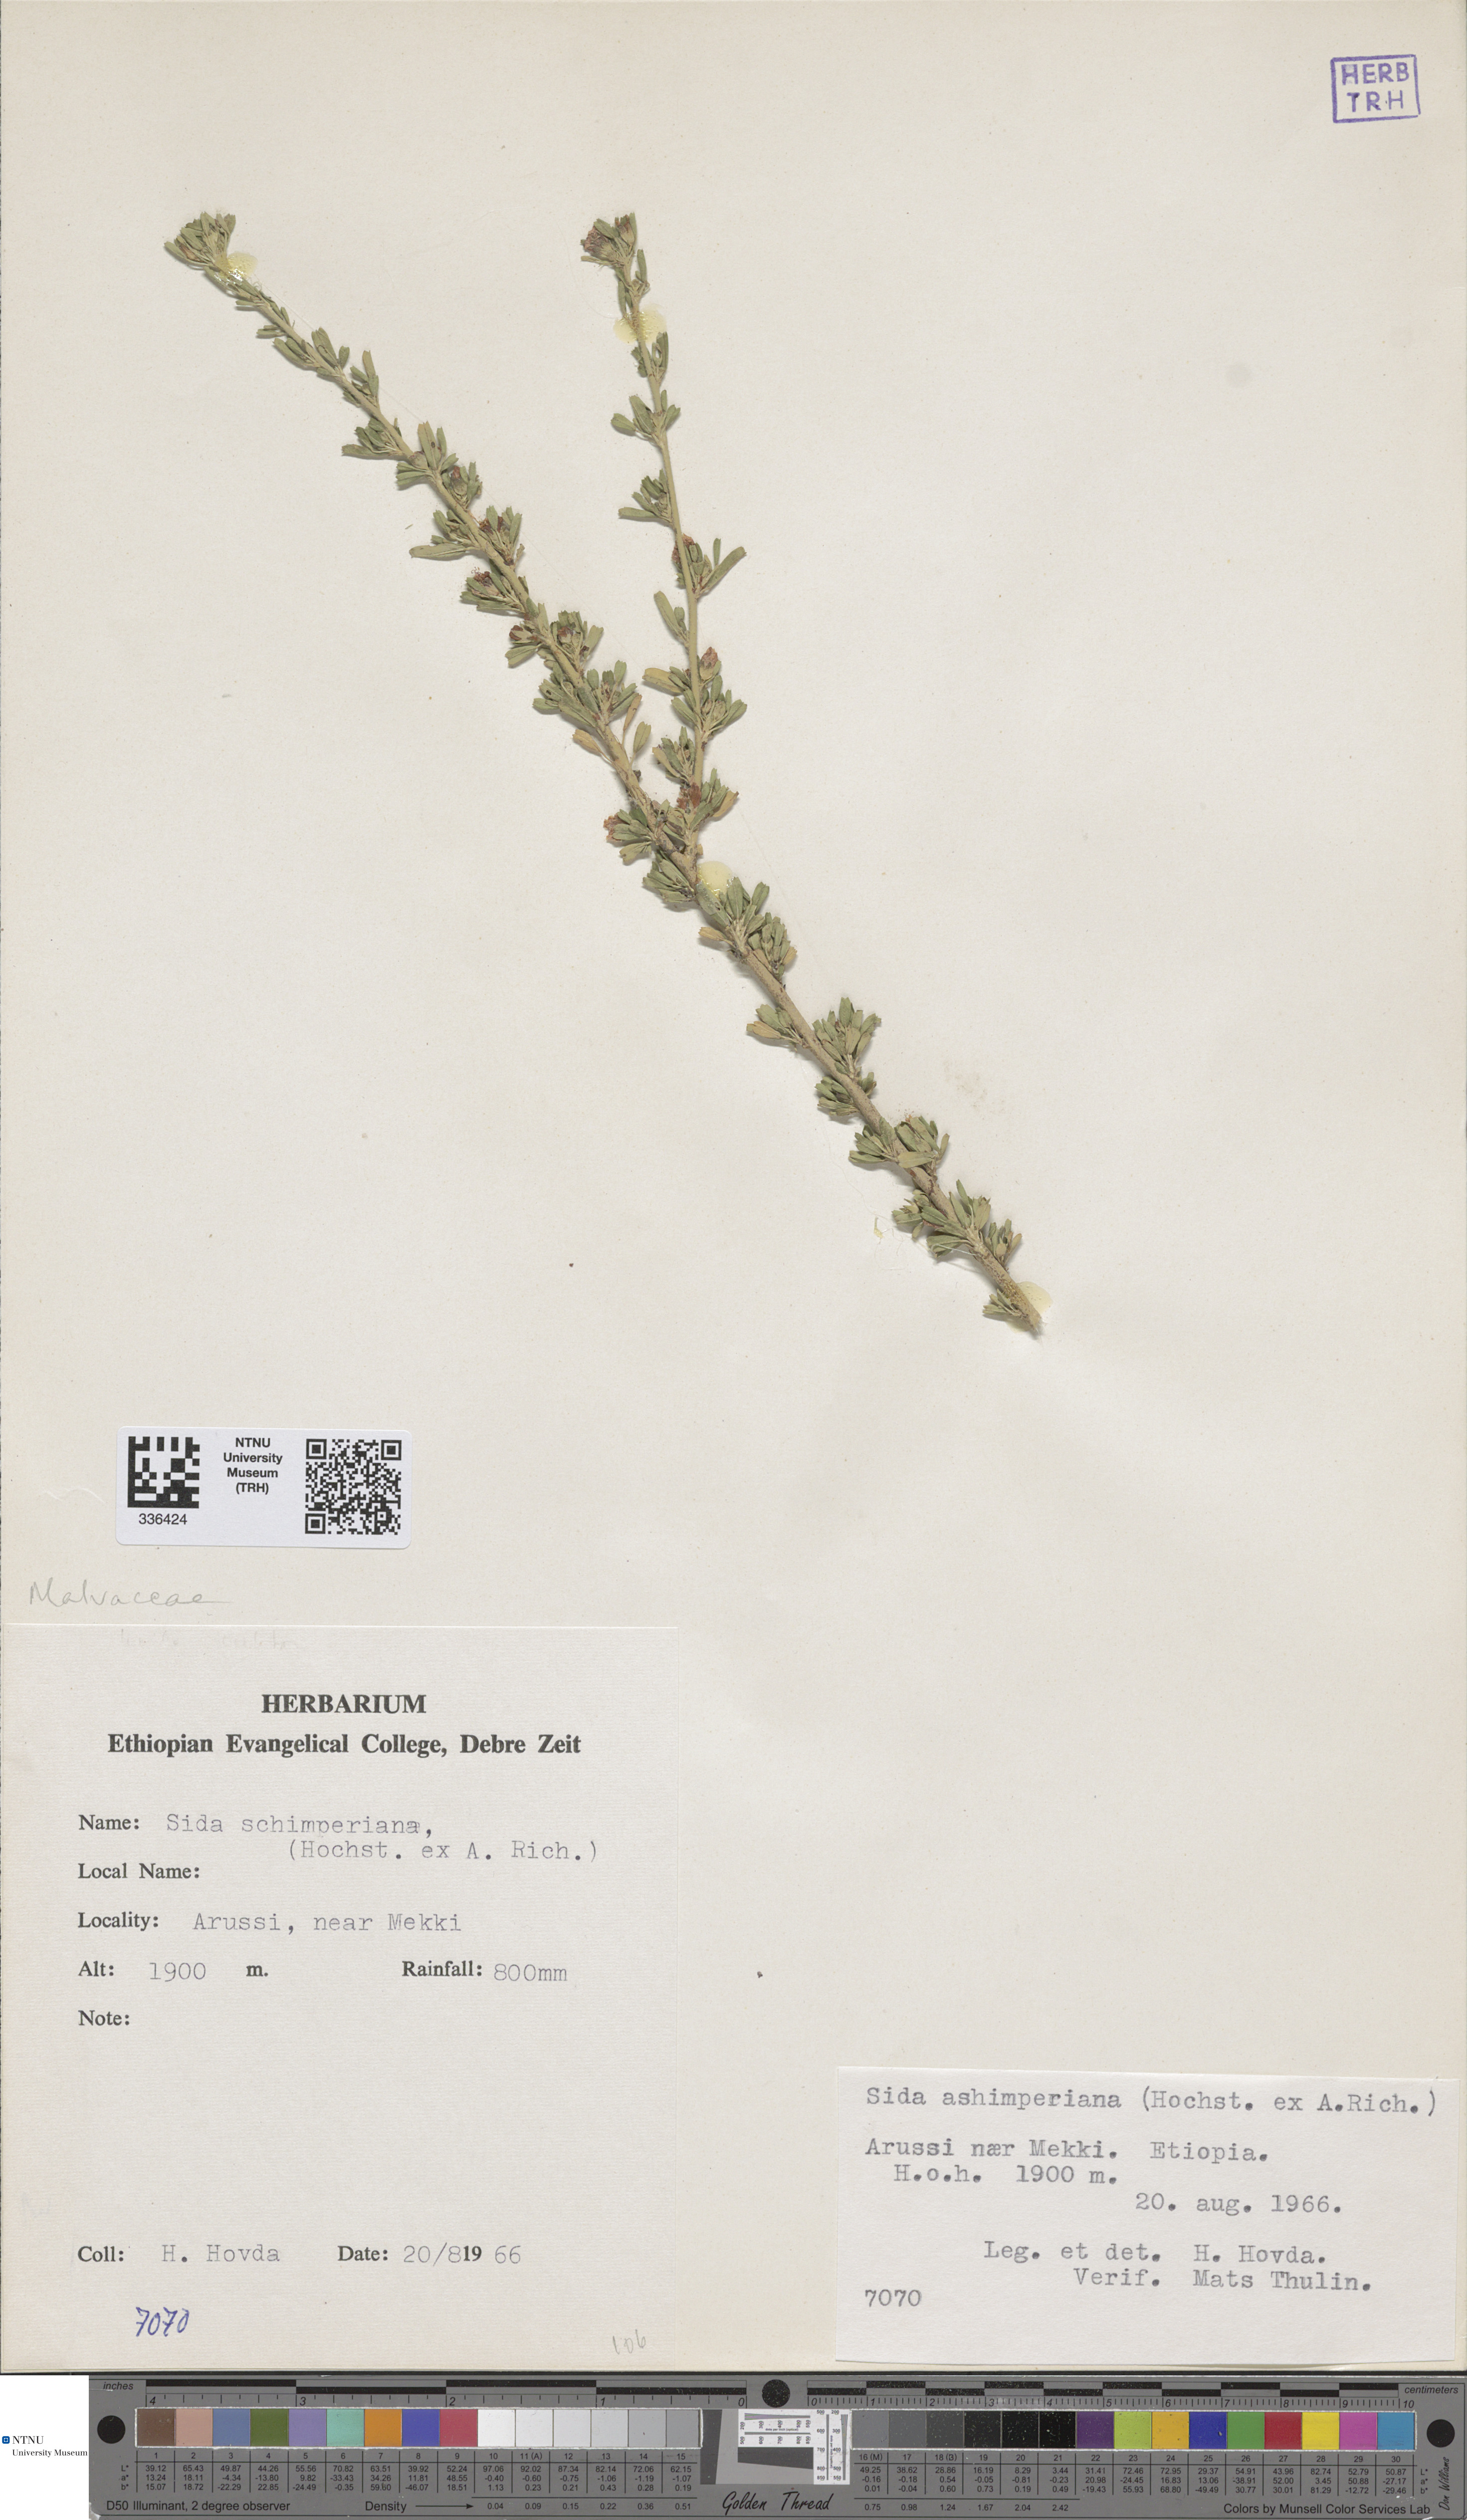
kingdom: Plantae
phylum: Tracheophyta
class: Magnoliopsida
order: Malvales
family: Malvaceae
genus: Sida
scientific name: Sida schimperiana
